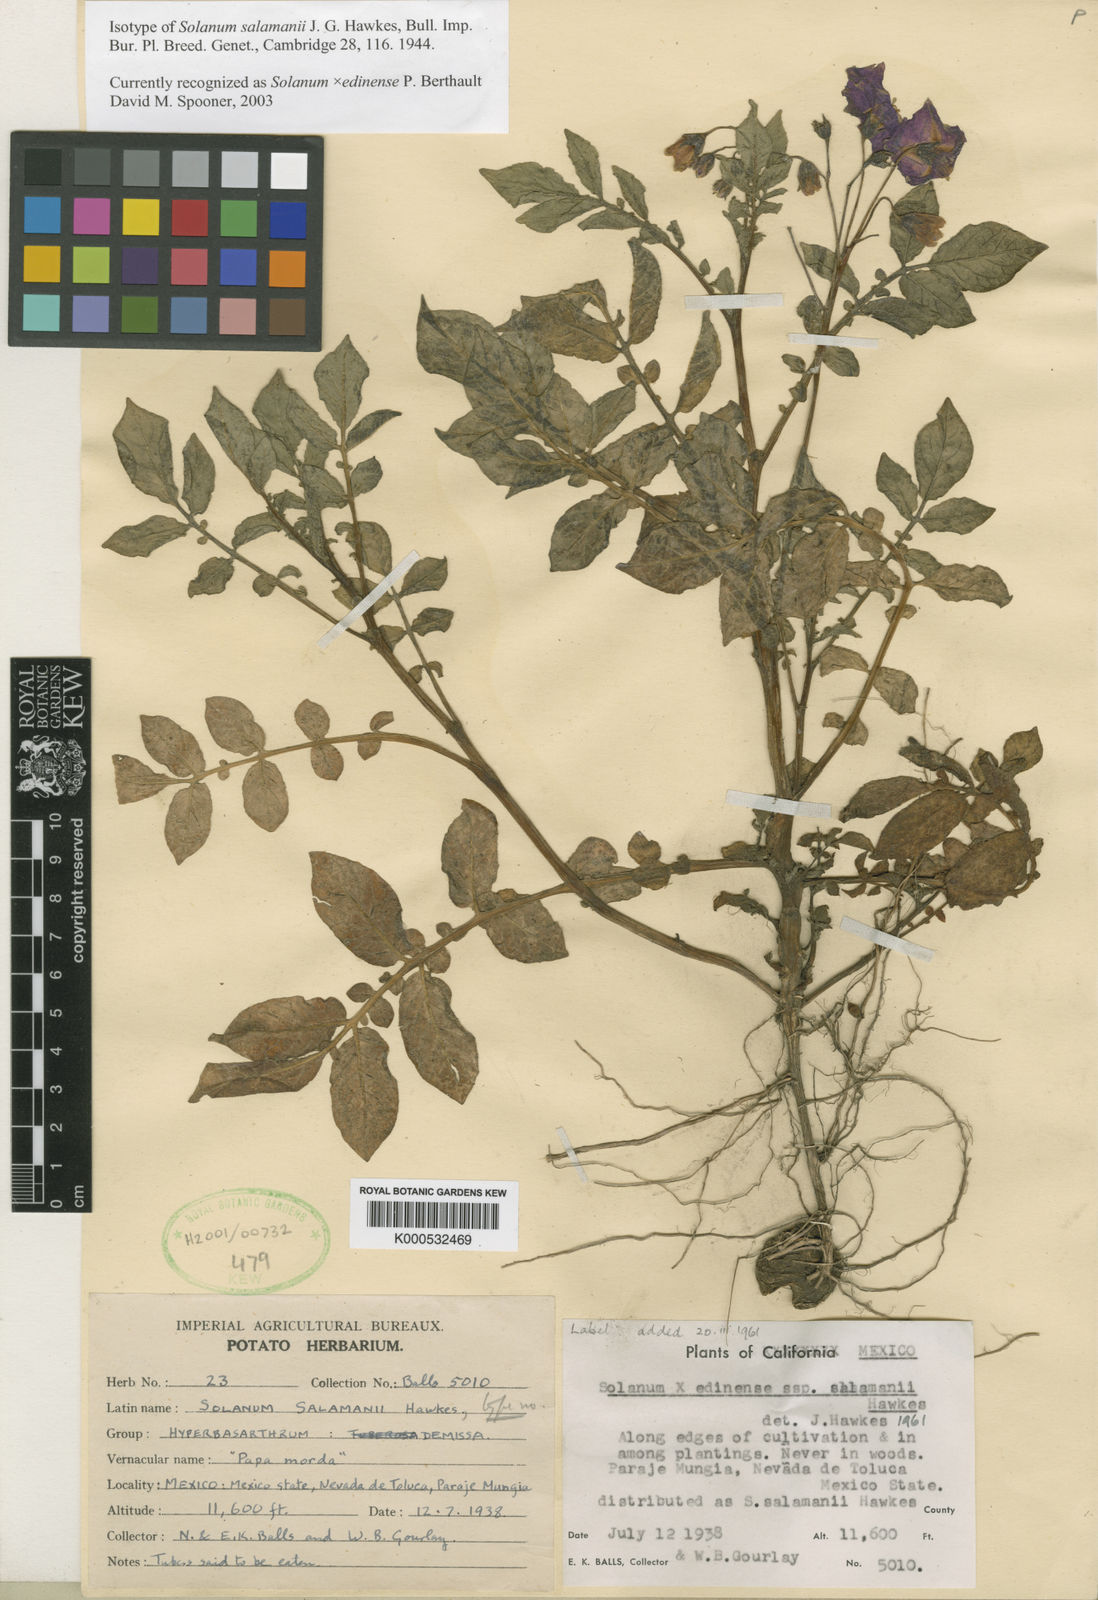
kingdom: Plantae
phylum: Tracheophyta
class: Magnoliopsida
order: Solanales
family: Solanaceae
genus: Solanum
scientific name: Solanum
